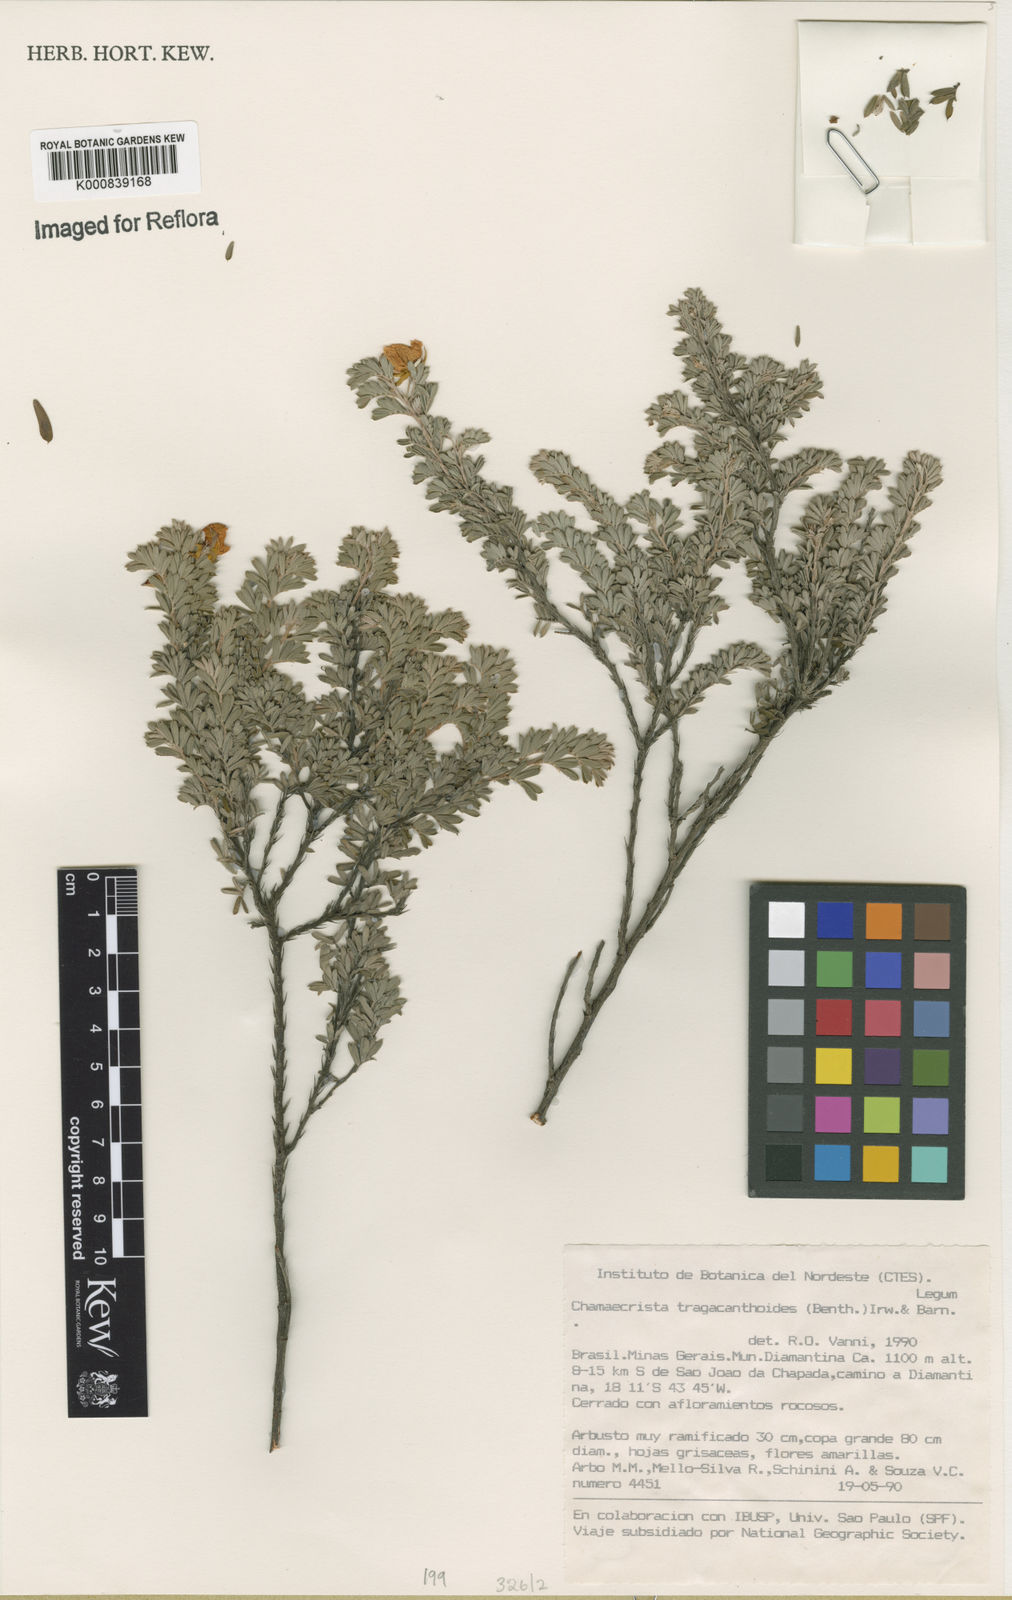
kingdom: Plantae
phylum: Tracheophyta
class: Magnoliopsida
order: Fabales
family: Fabaceae
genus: Chamaecrista
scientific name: Chamaecrista tragacanthoides
